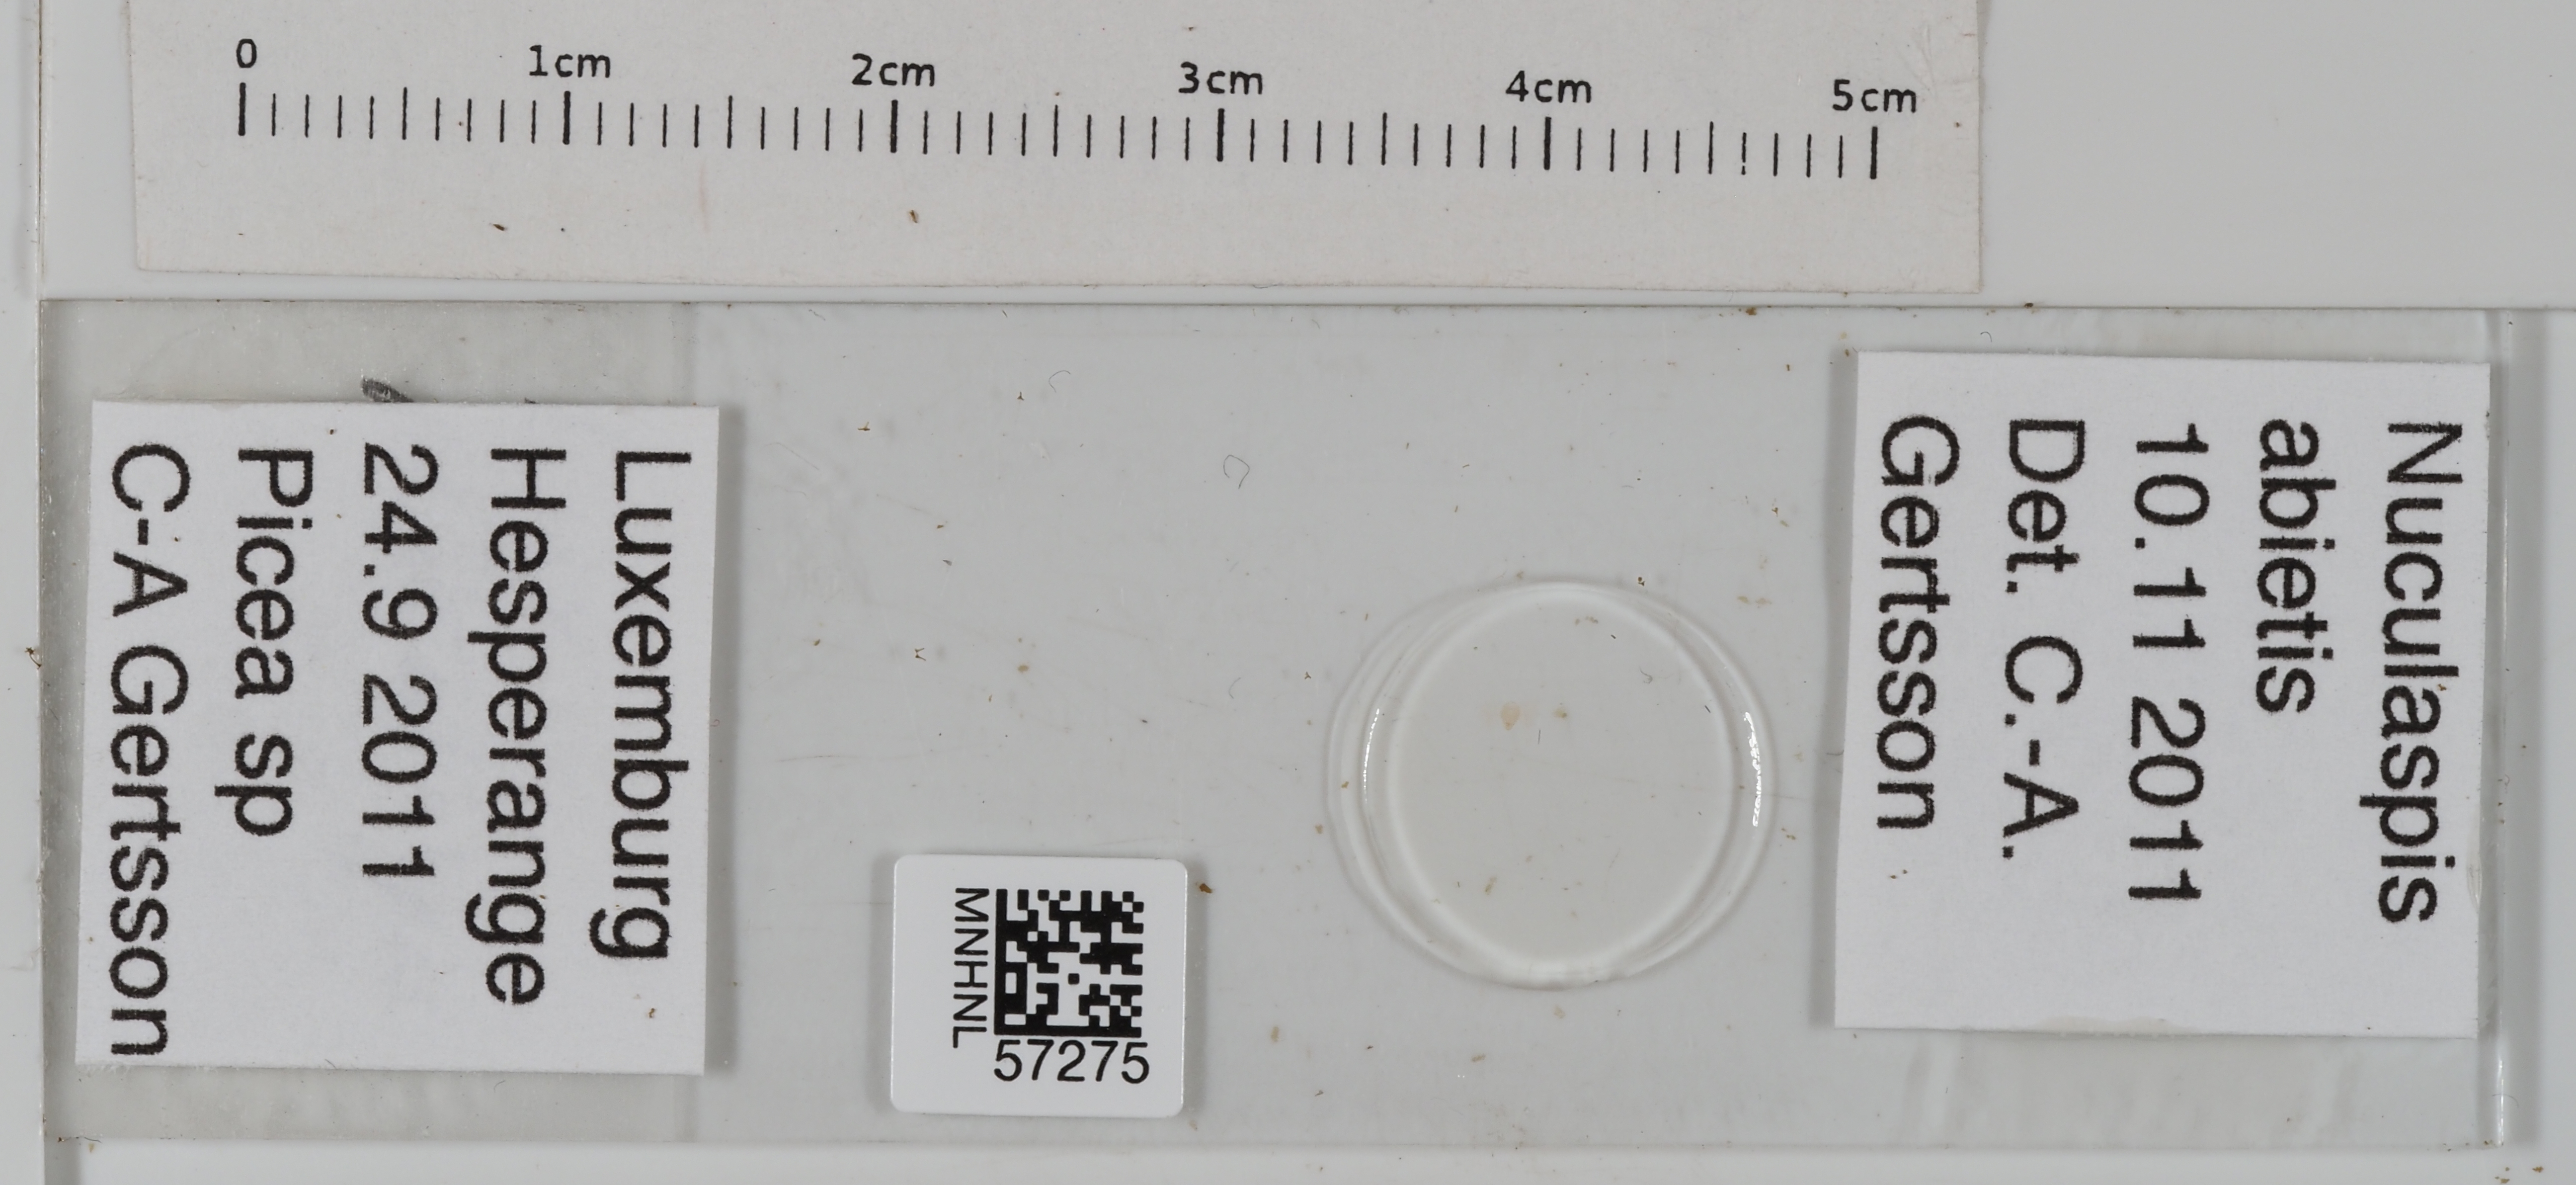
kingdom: Animalia
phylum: Arthropoda
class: Insecta
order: Hemiptera
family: Diaspididae
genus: Dynaspidiotus
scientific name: Dynaspidiotus abietis
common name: Hemlock scale
